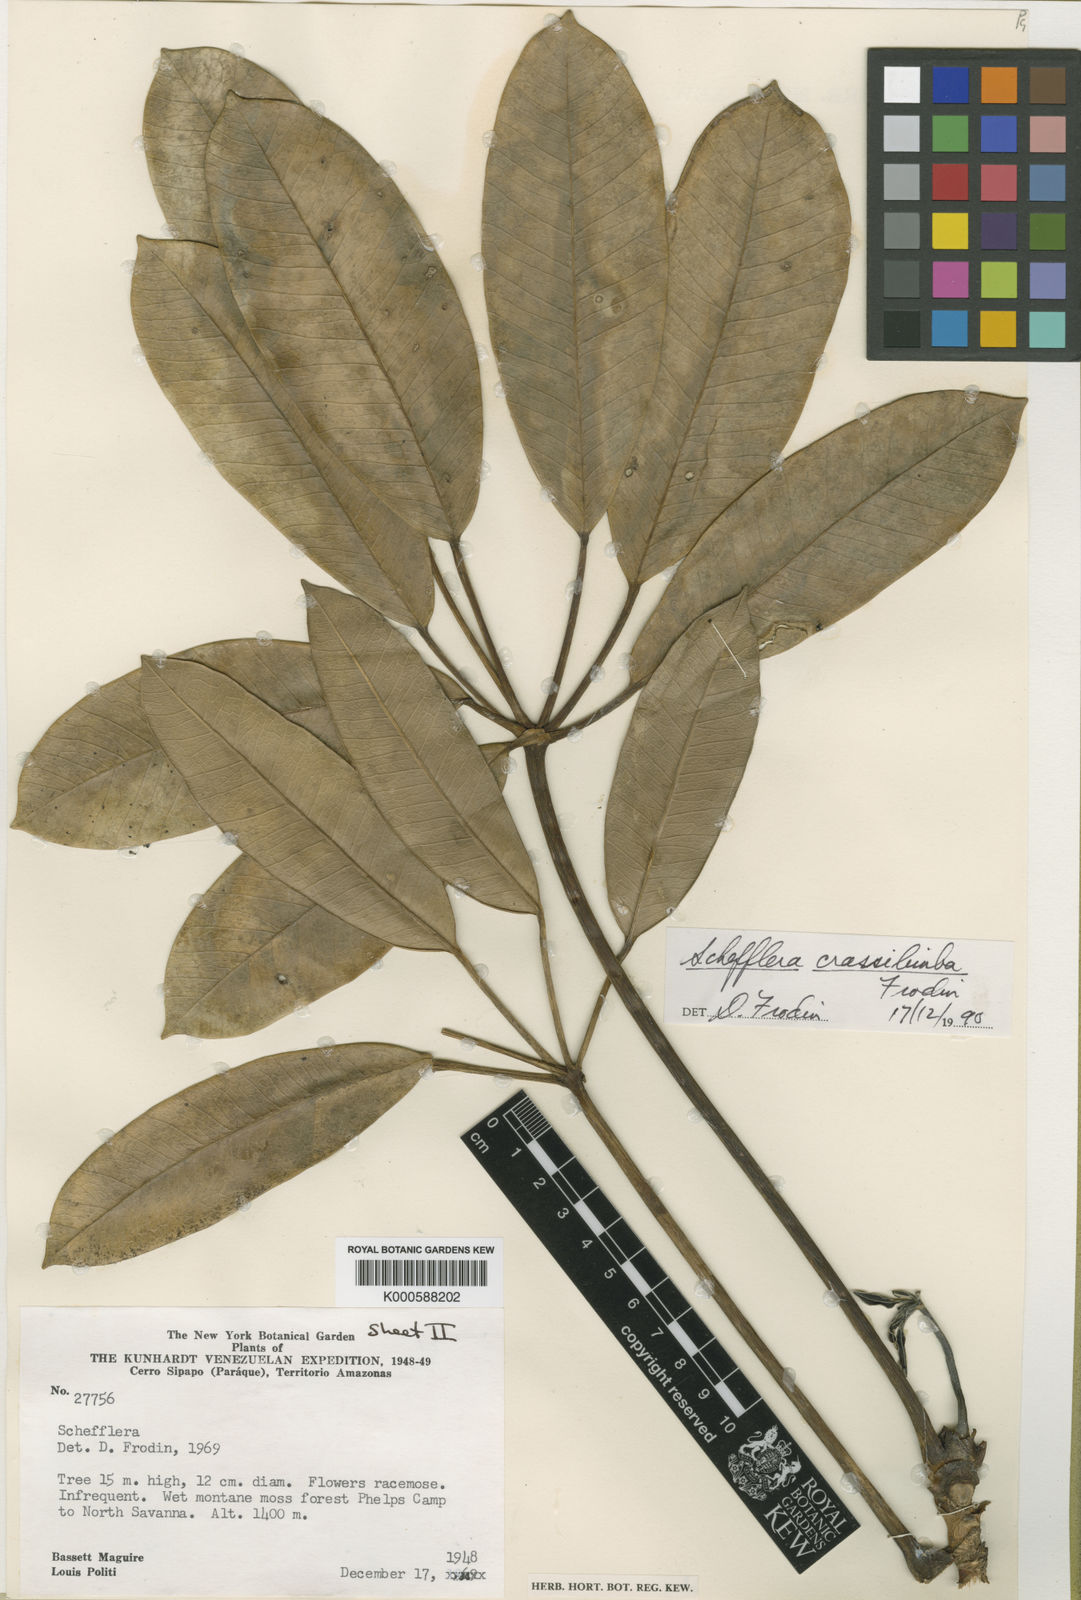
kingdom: Plantae
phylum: Tracheophyta
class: Magnoliopsida
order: Apiales
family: Araliaceae
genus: Sciodaphyllum
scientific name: Sciodaphyllum
